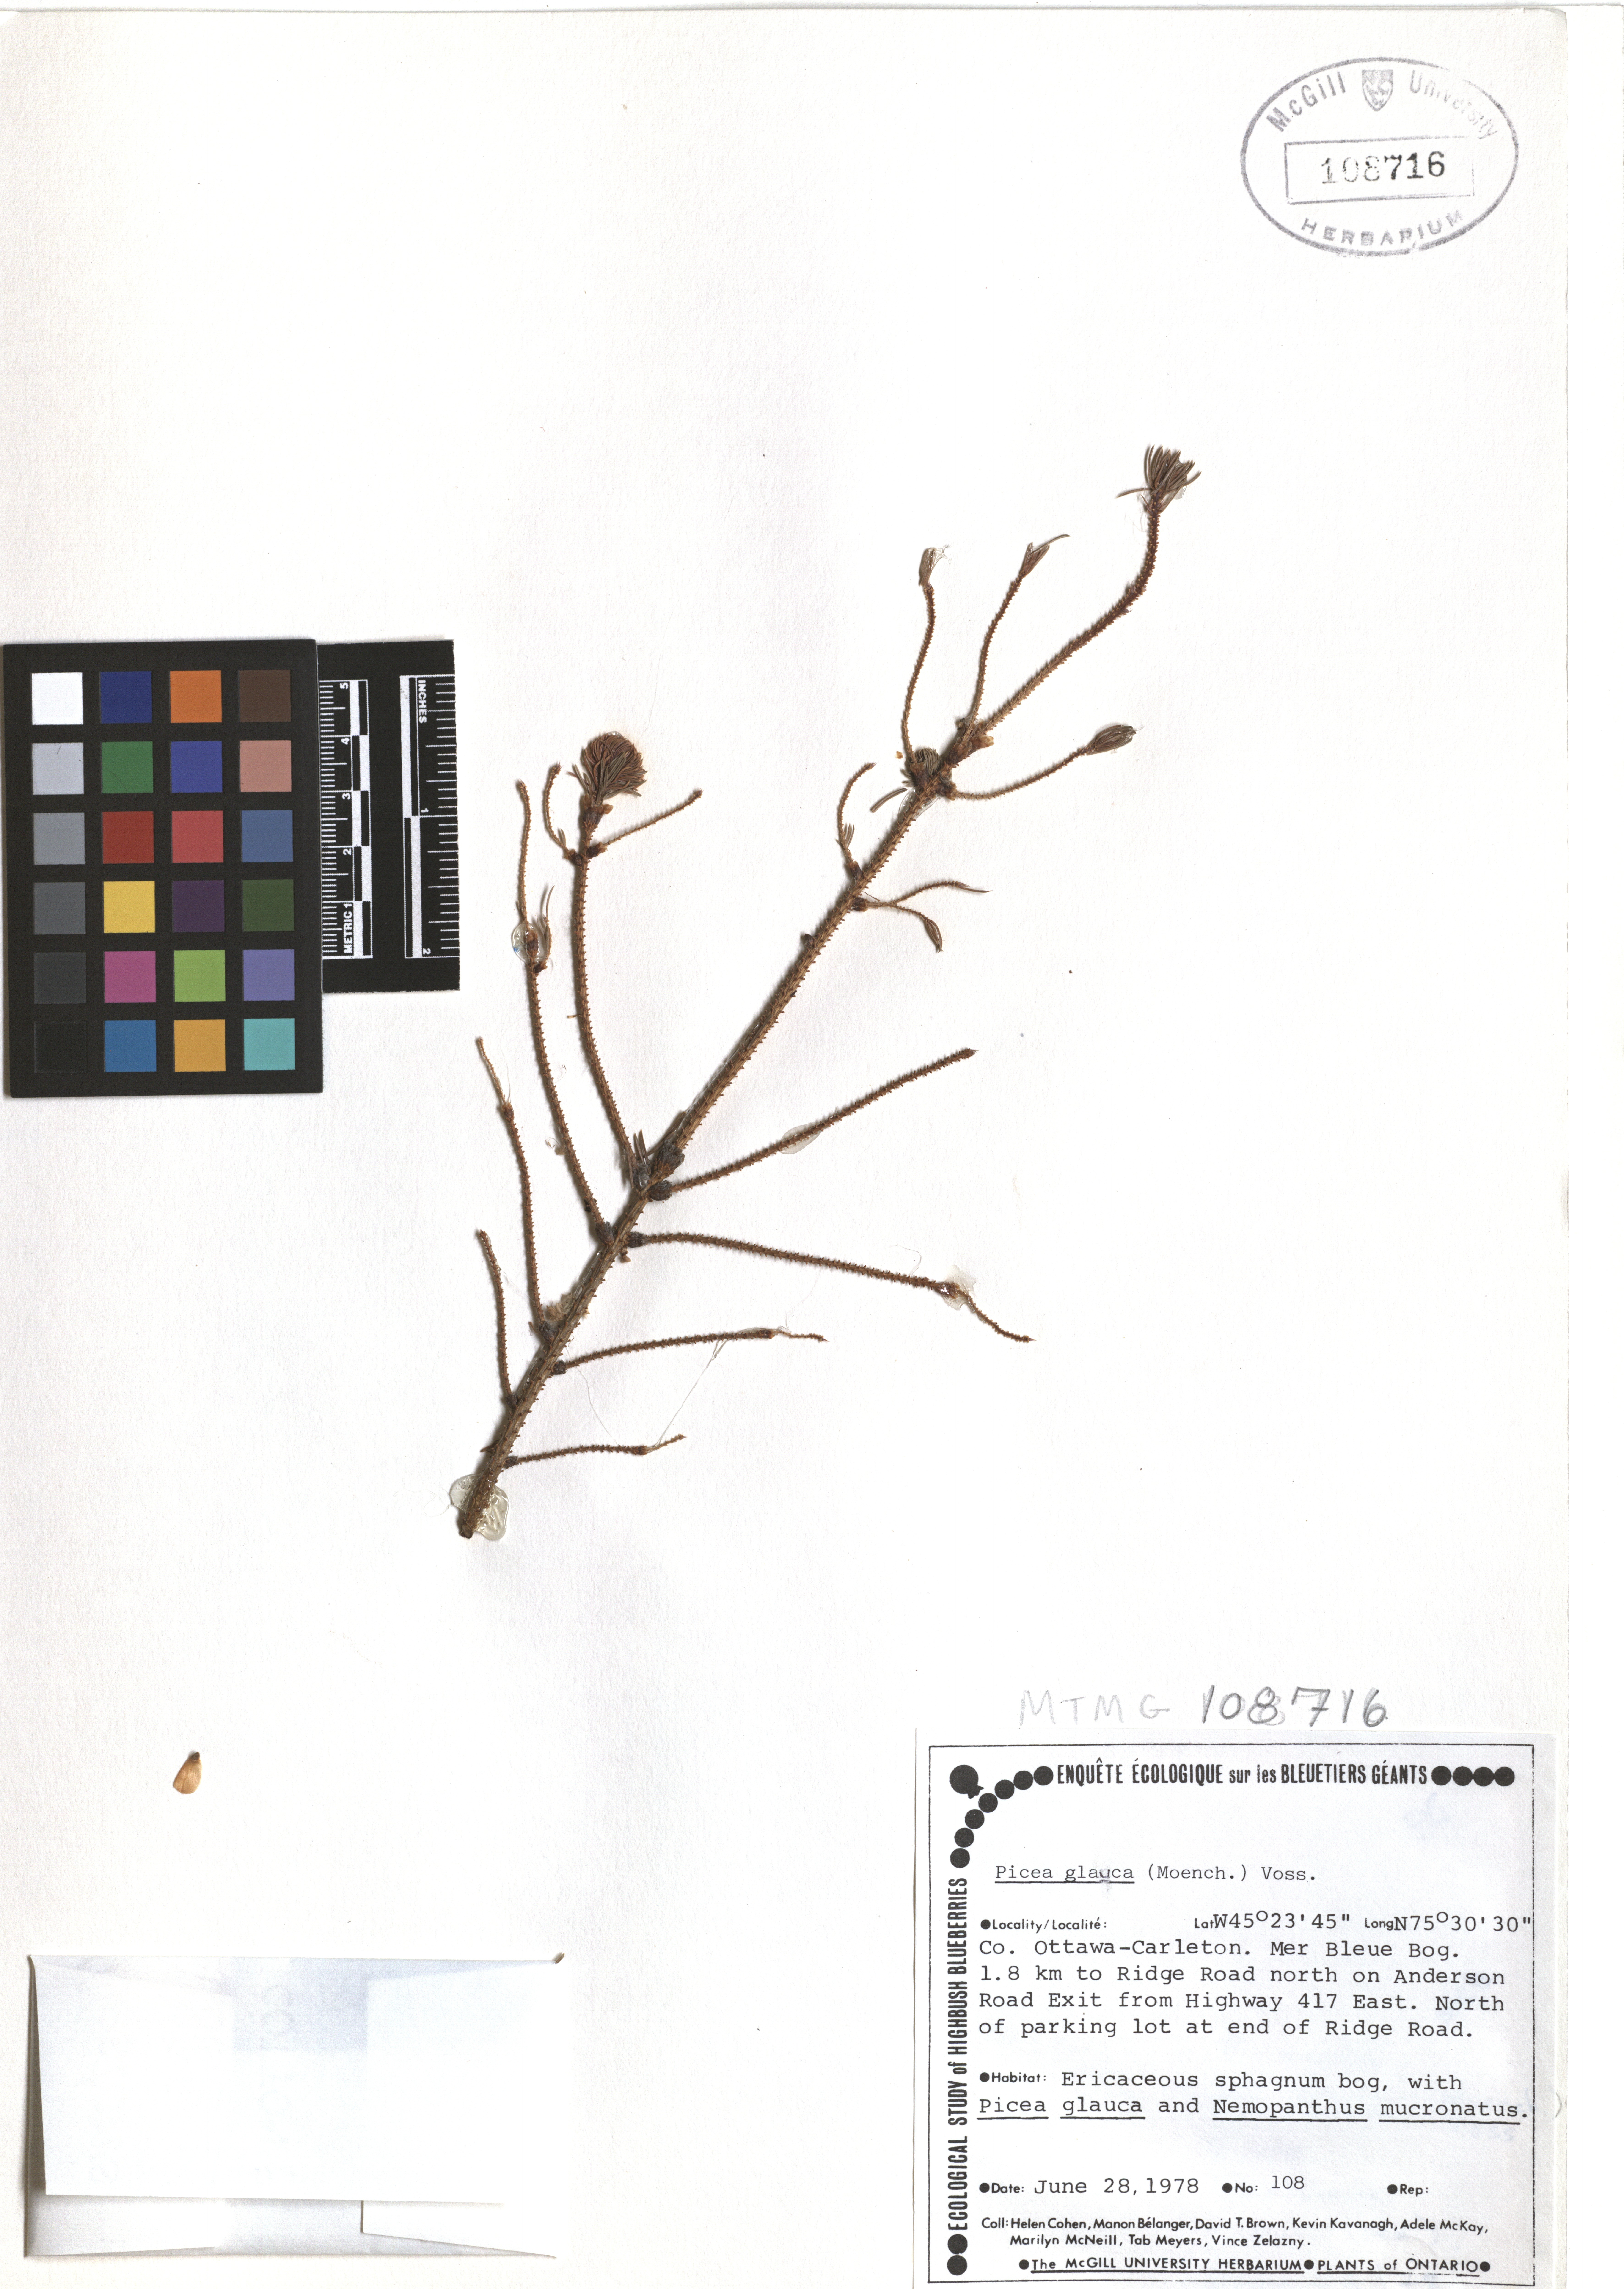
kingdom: Plantae
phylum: Tracheophyta
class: Pinopsida
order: Pinales
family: Pinaceae
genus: Picea
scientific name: Picea glauca
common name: White spruce
